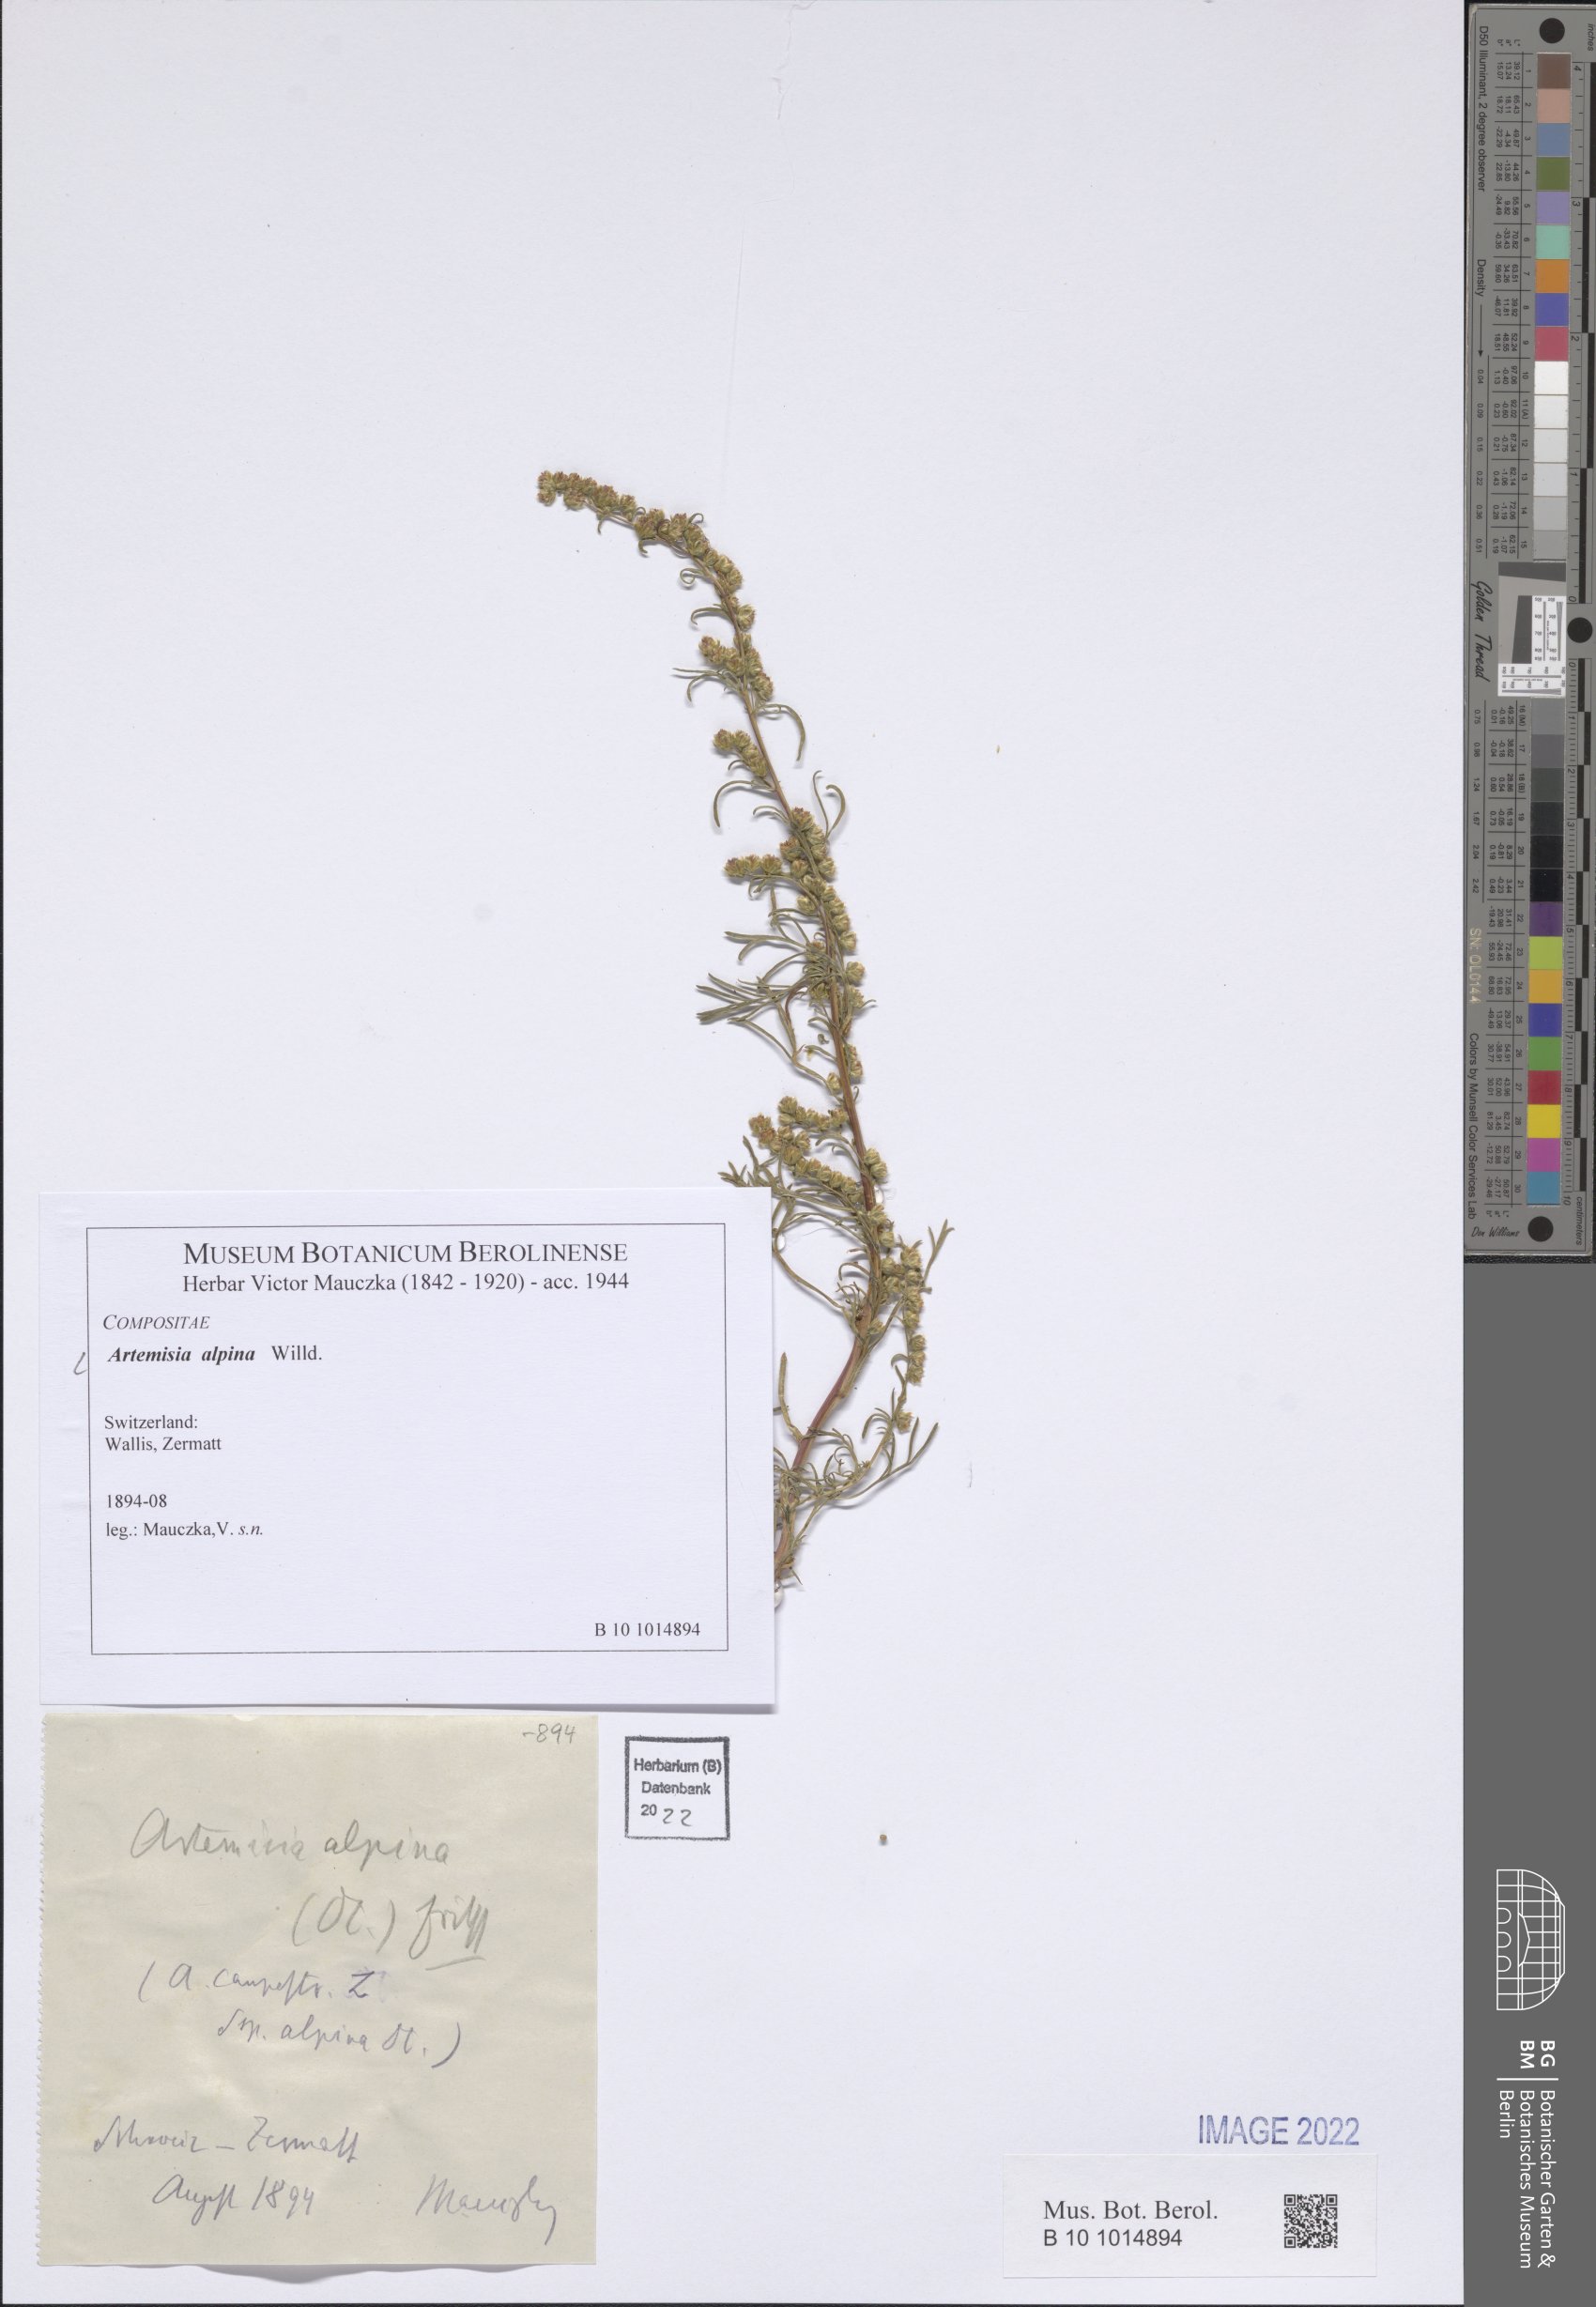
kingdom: Plantae
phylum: Tracheophyta
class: Magnoliopsida
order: Asterales
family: Asteraceae
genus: Artemisia
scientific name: Artemisia alpina
